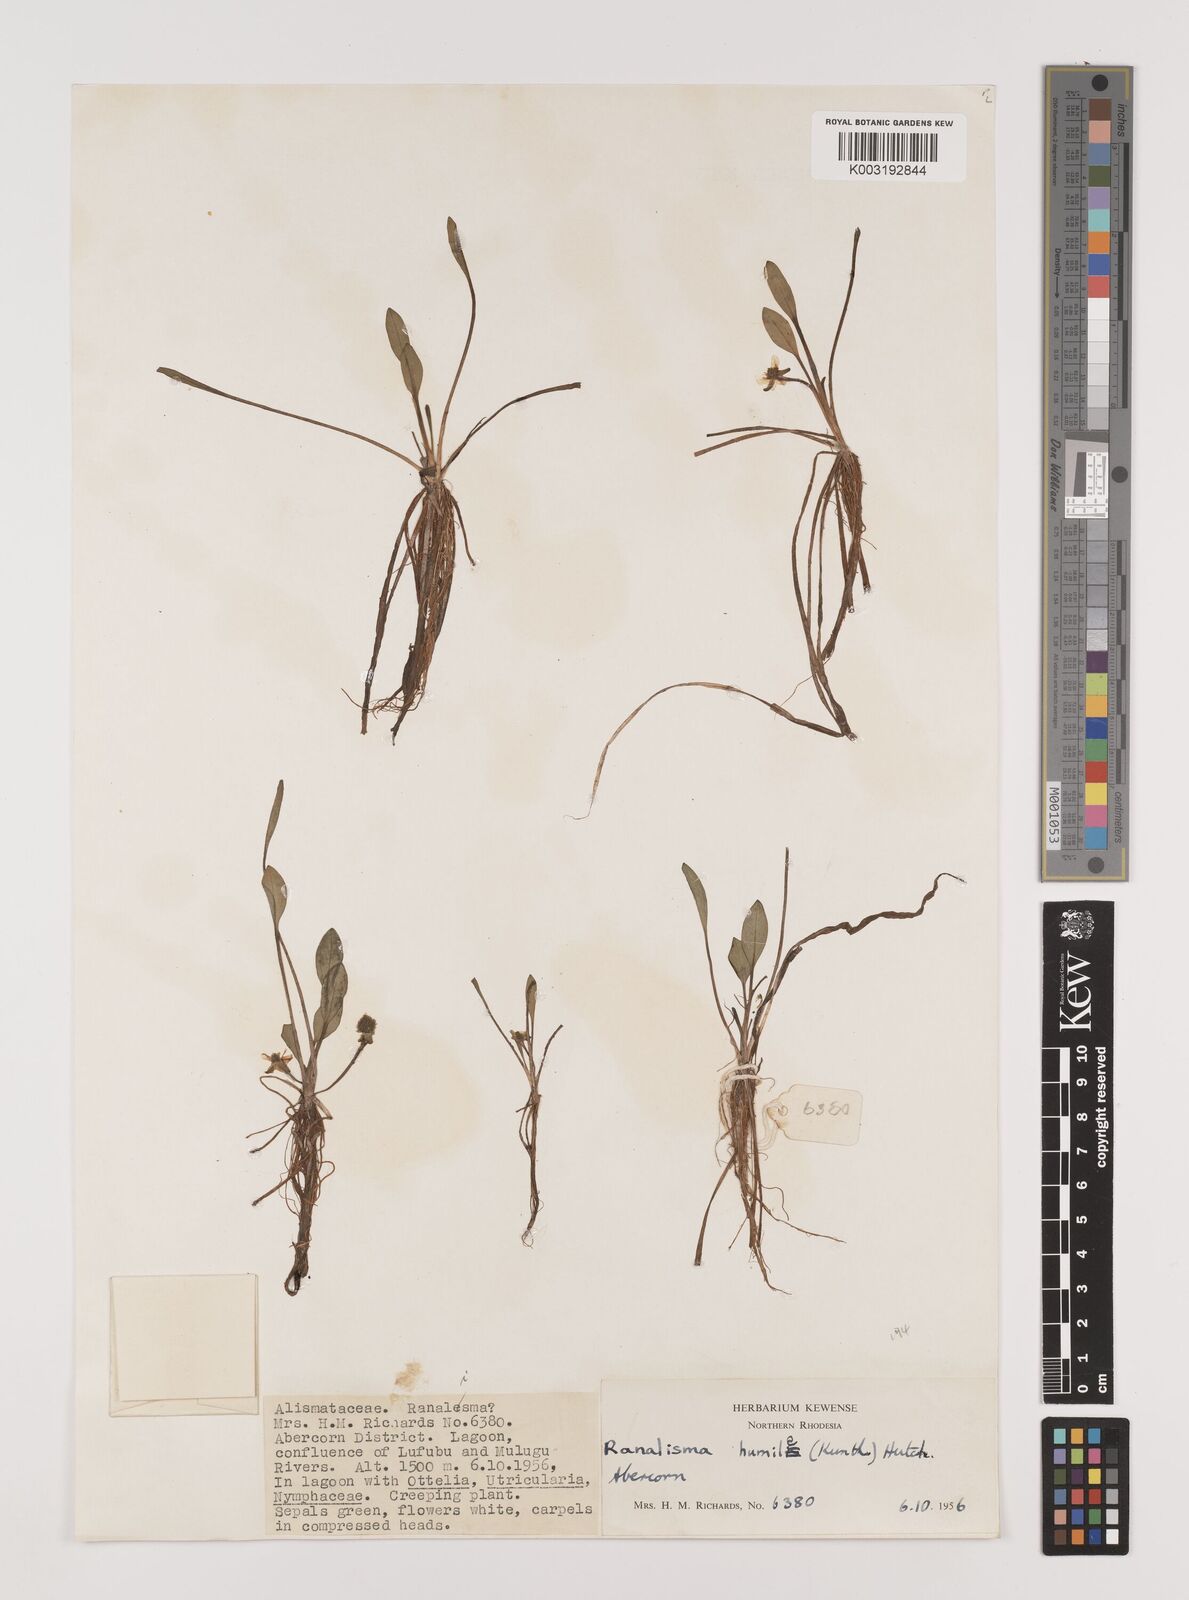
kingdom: Plantae
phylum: Tracheophyta
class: Liliopsida
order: Alismatales
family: Alismataceae
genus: Ranalisma
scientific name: Ranalisma humile
